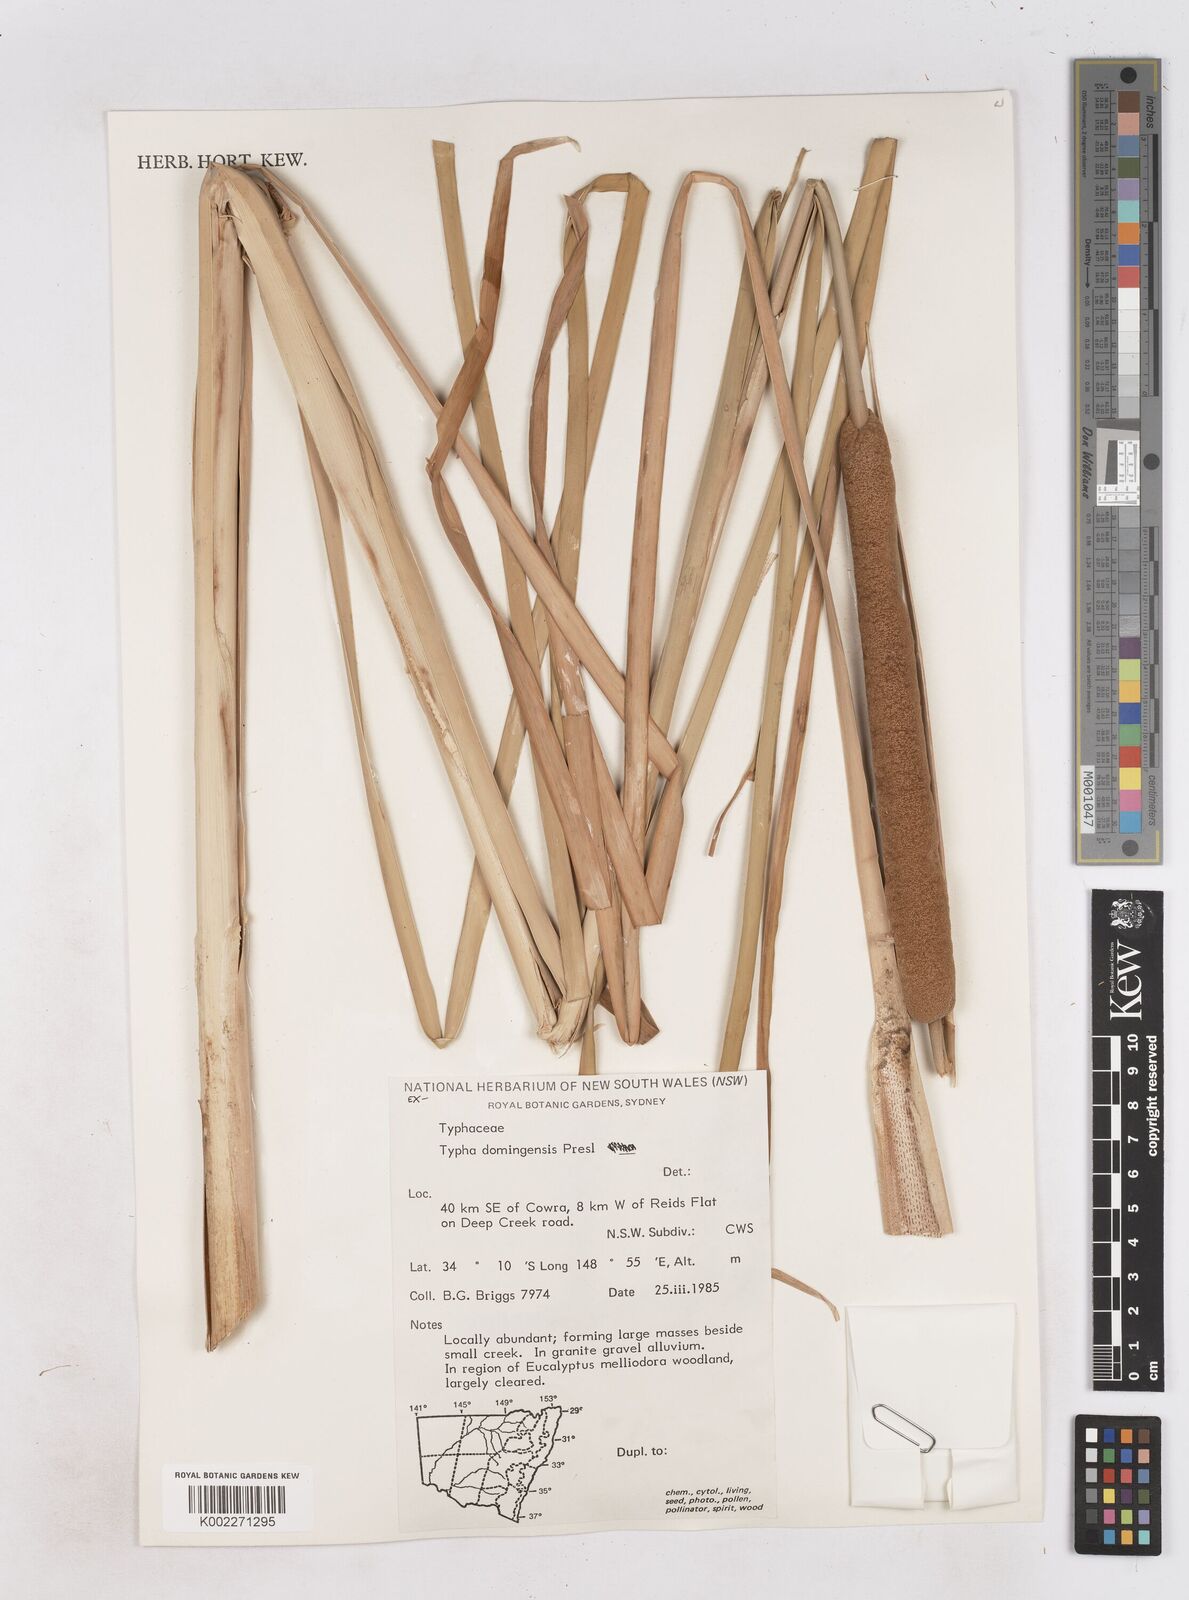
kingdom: Plantae
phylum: Tracheophyta
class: Liliopsida
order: Poales
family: Typhaceae
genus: Typha
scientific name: Typha domingensis
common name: Southern cattail
